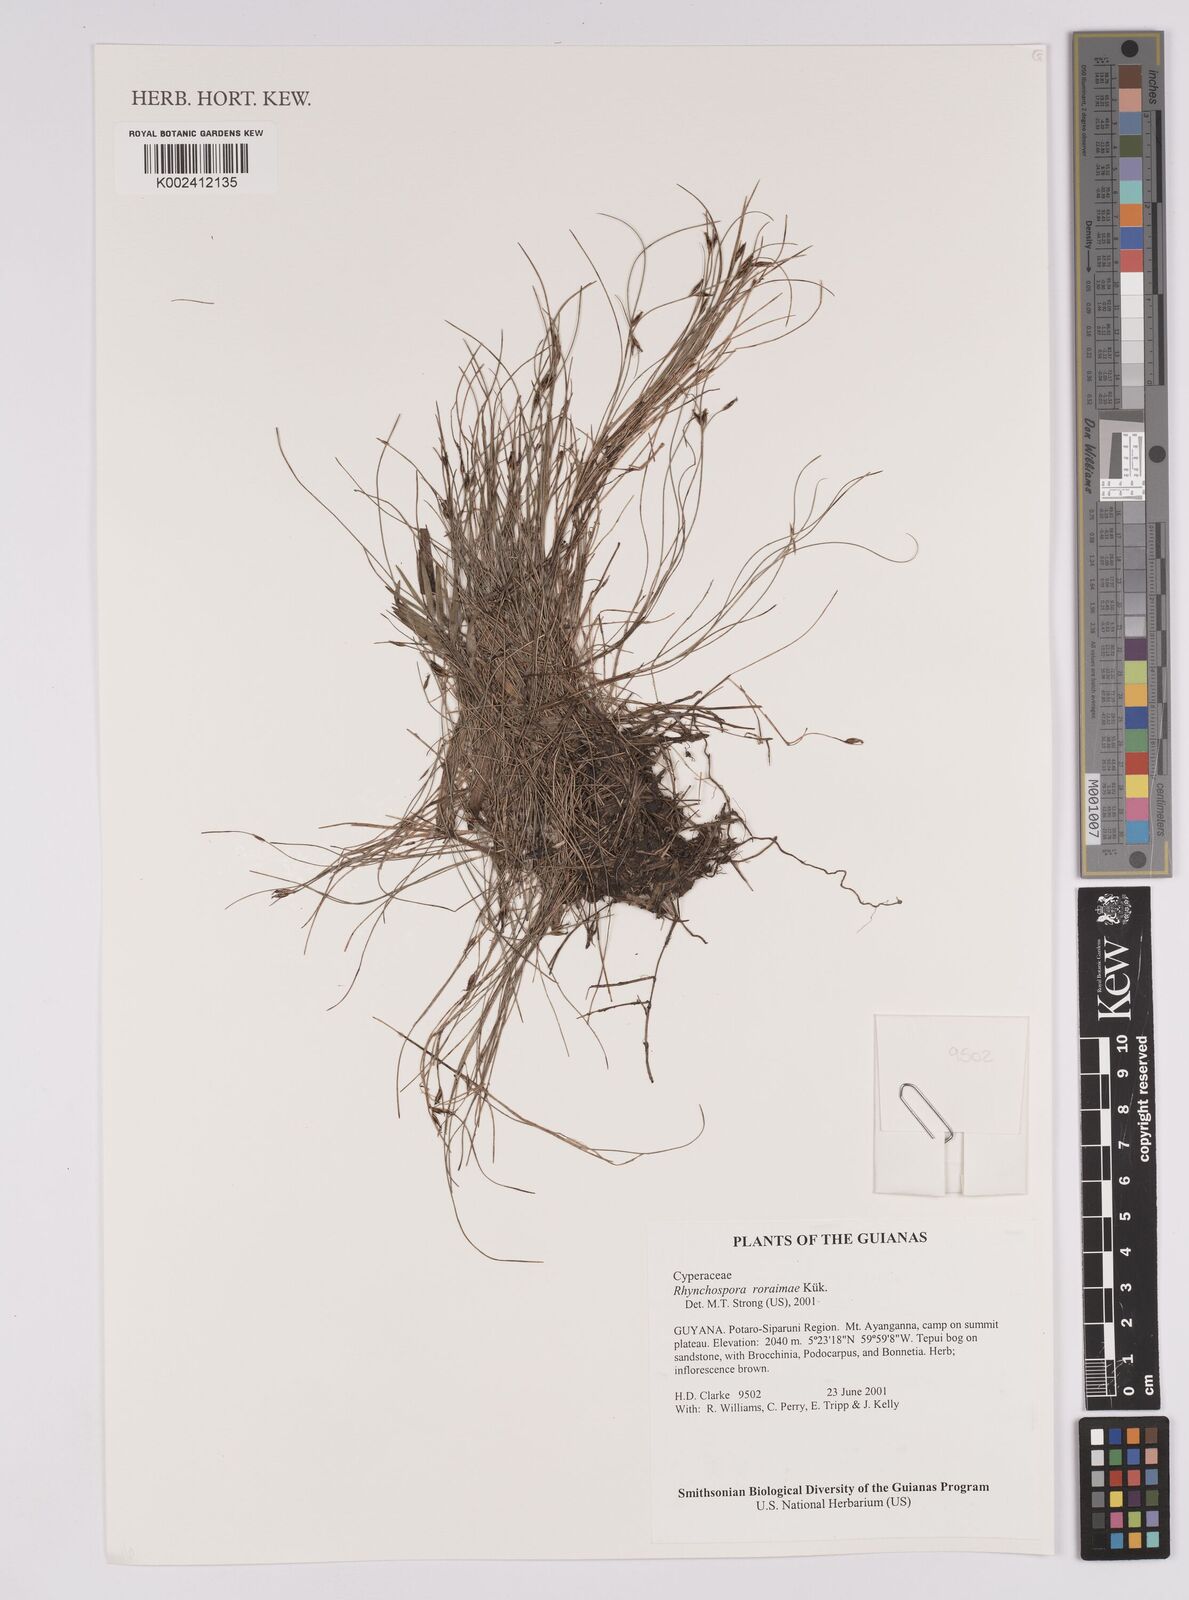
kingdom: Plantae
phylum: Tracheophyta
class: Liliopsida
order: Poales
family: Cyperaceae
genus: Rhynchospora
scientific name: Rhynchospora roraimae
